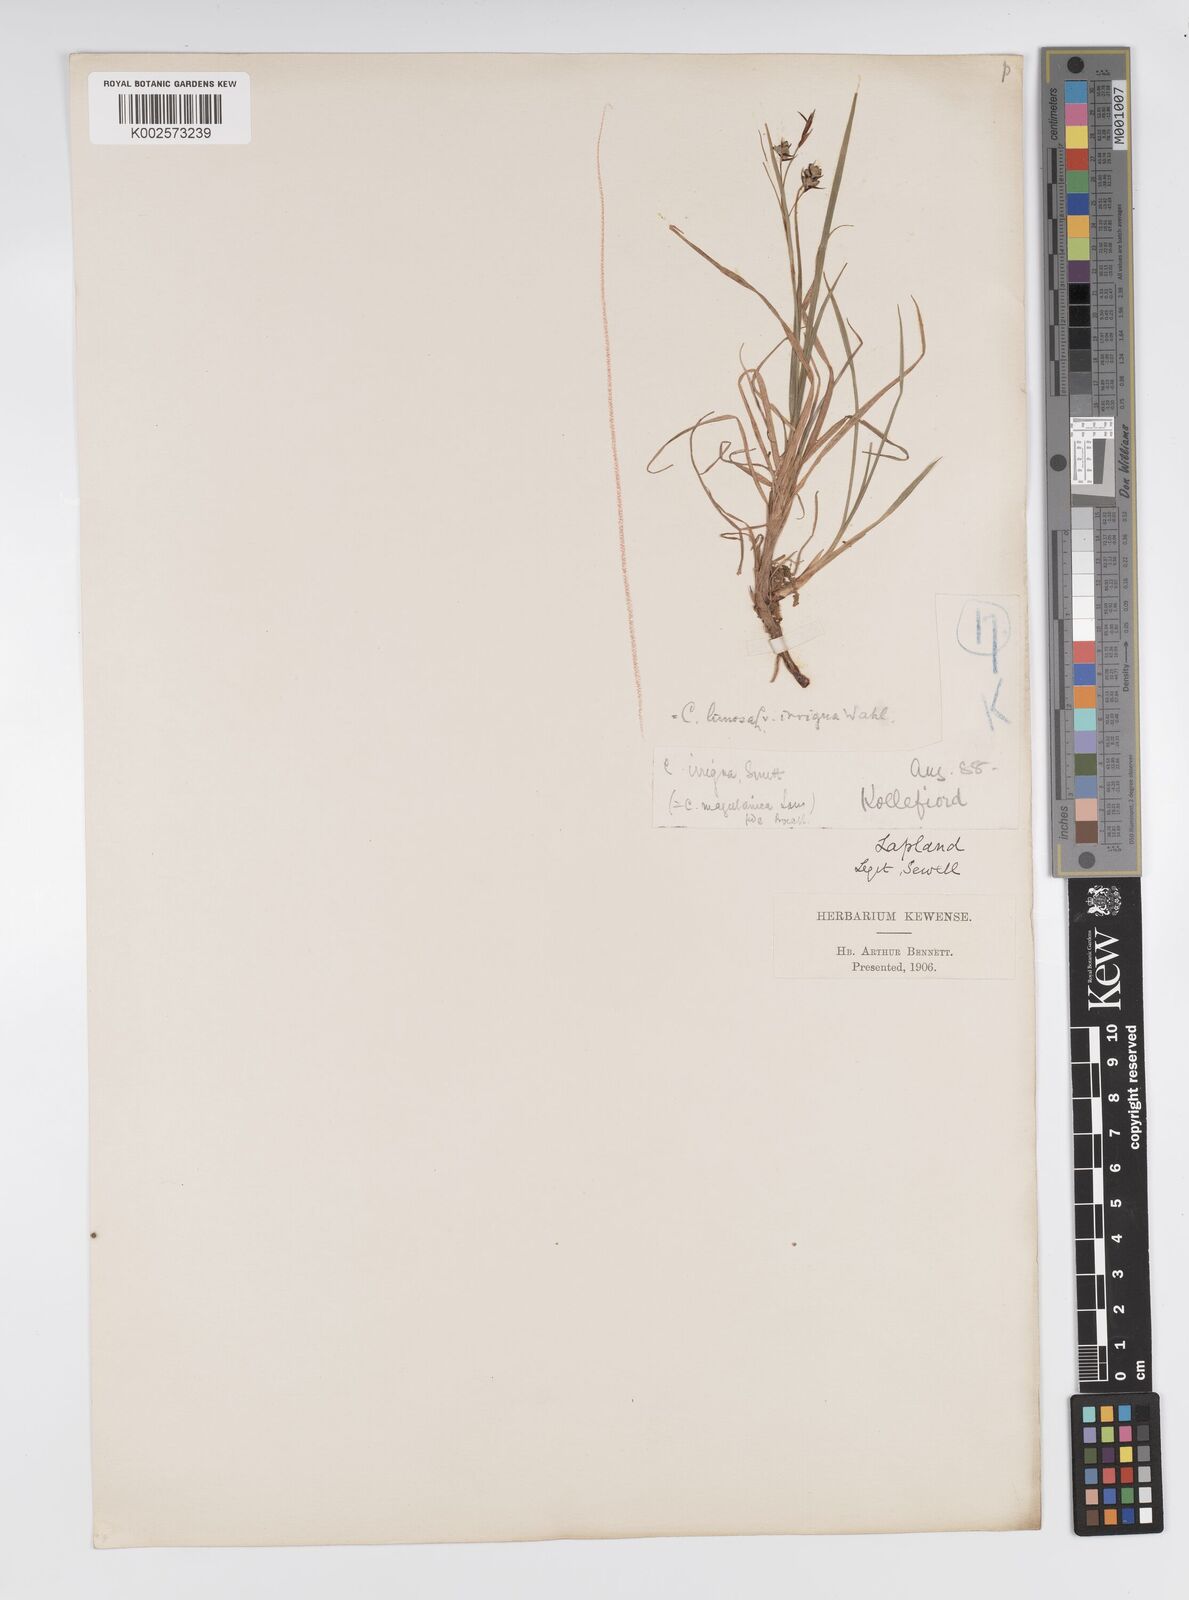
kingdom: Plantae
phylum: Tracheophyta
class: Liliopsida
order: Poales
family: Cyperaceae
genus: Carex
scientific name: Carex magellanica
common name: Bog sedge
